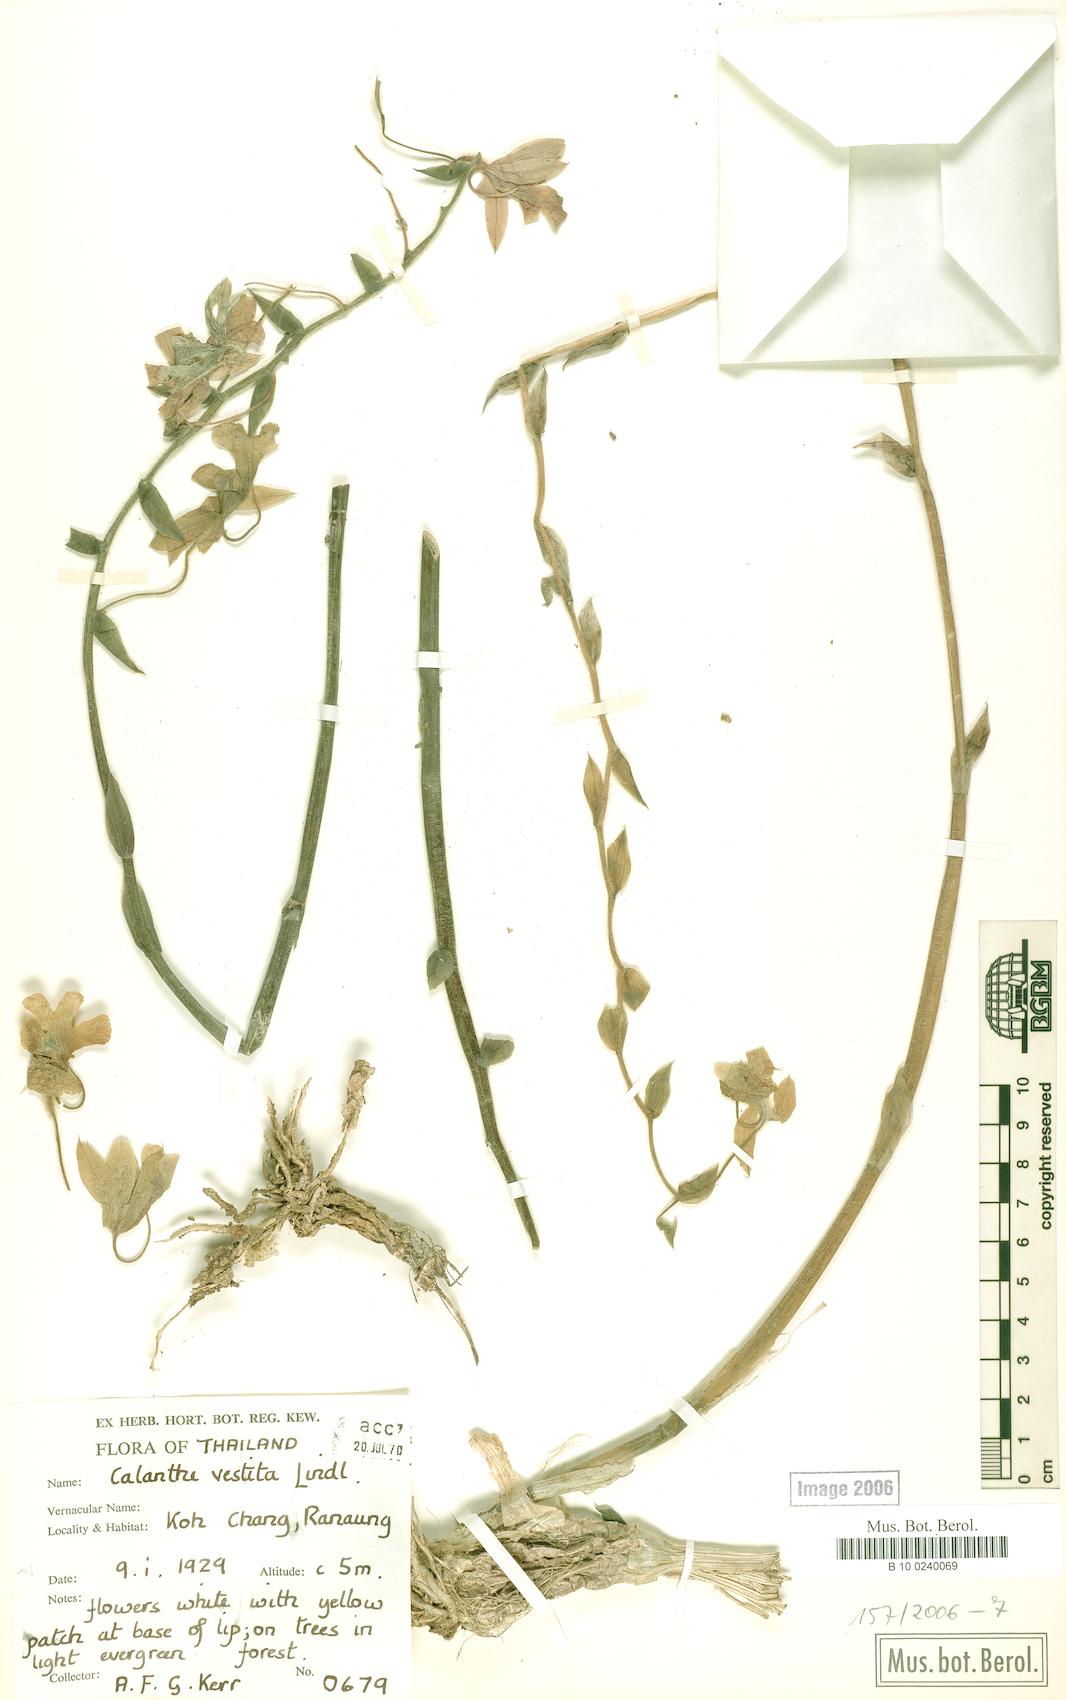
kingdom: Plantae
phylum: Tracheophyta
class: Liliopsida
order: Asparagales
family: Orchidaceae
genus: Calanthe
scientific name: Calanthe vestita
